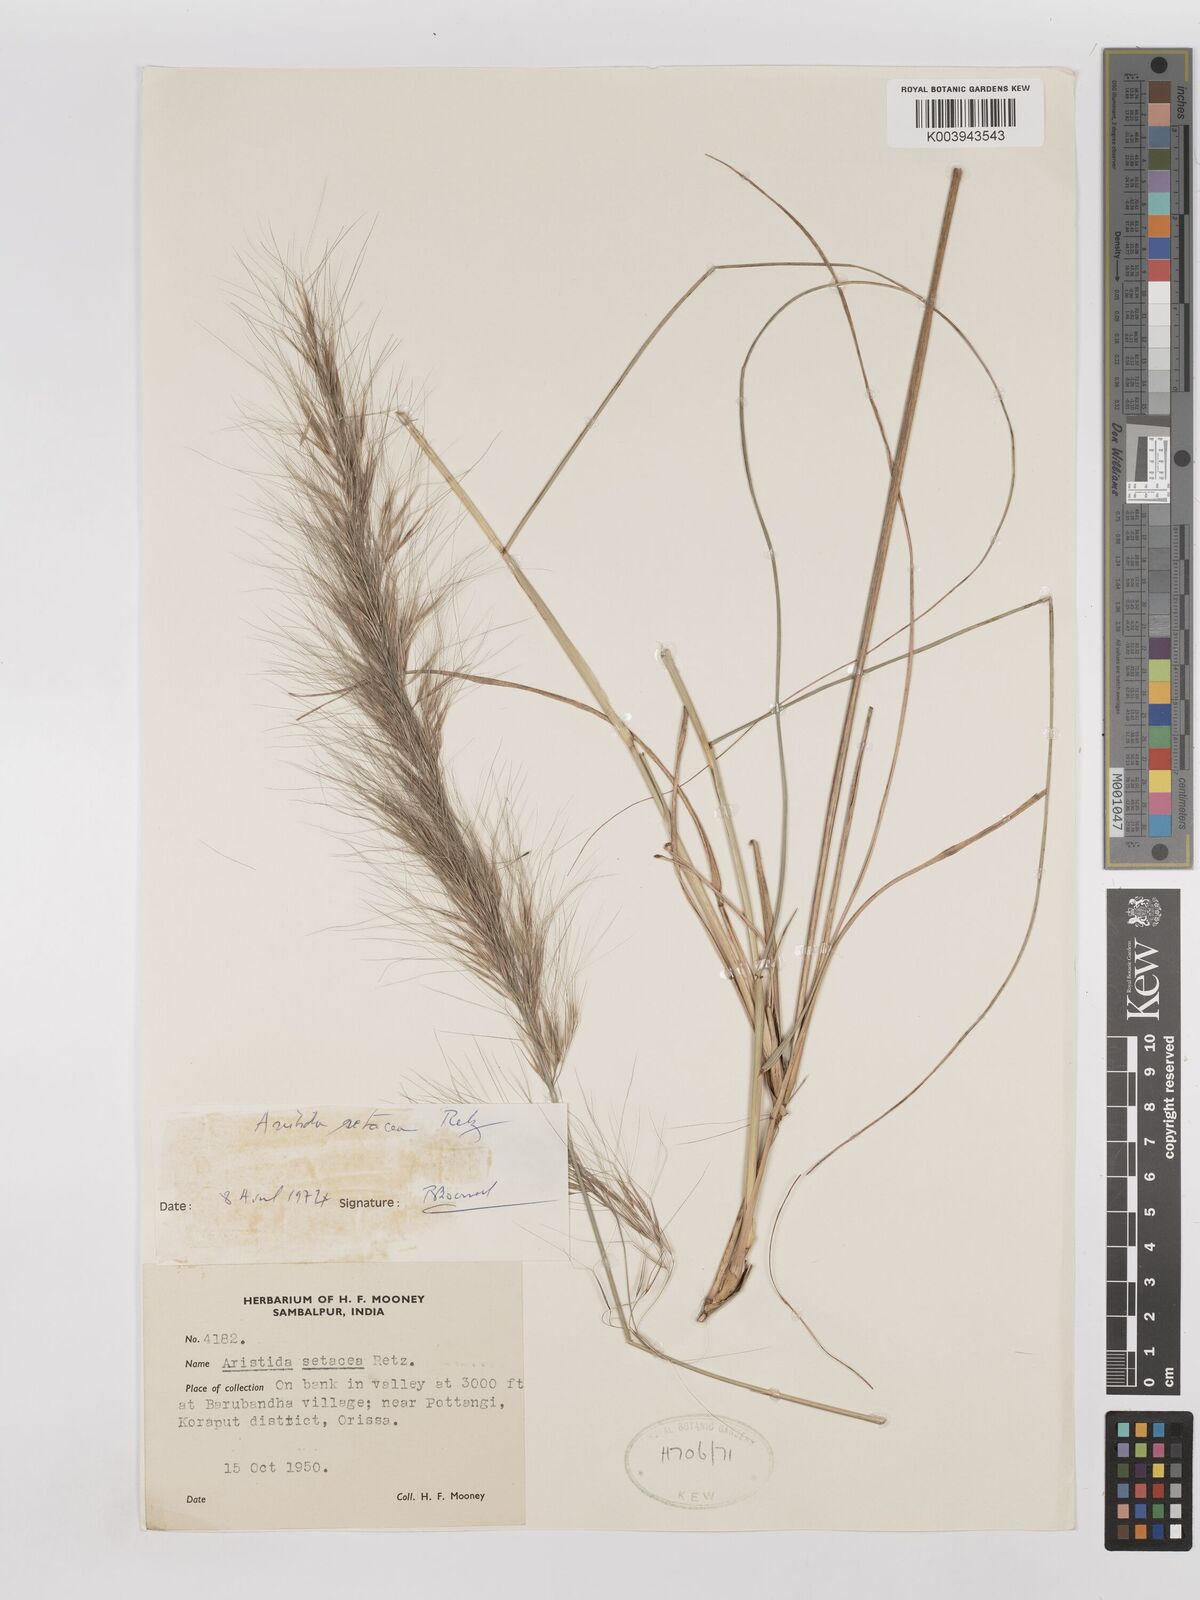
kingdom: Plantae
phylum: Tracheophyta
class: Liliopsida
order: Poales
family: Poaceae
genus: Aristida
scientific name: Aristida setacea
